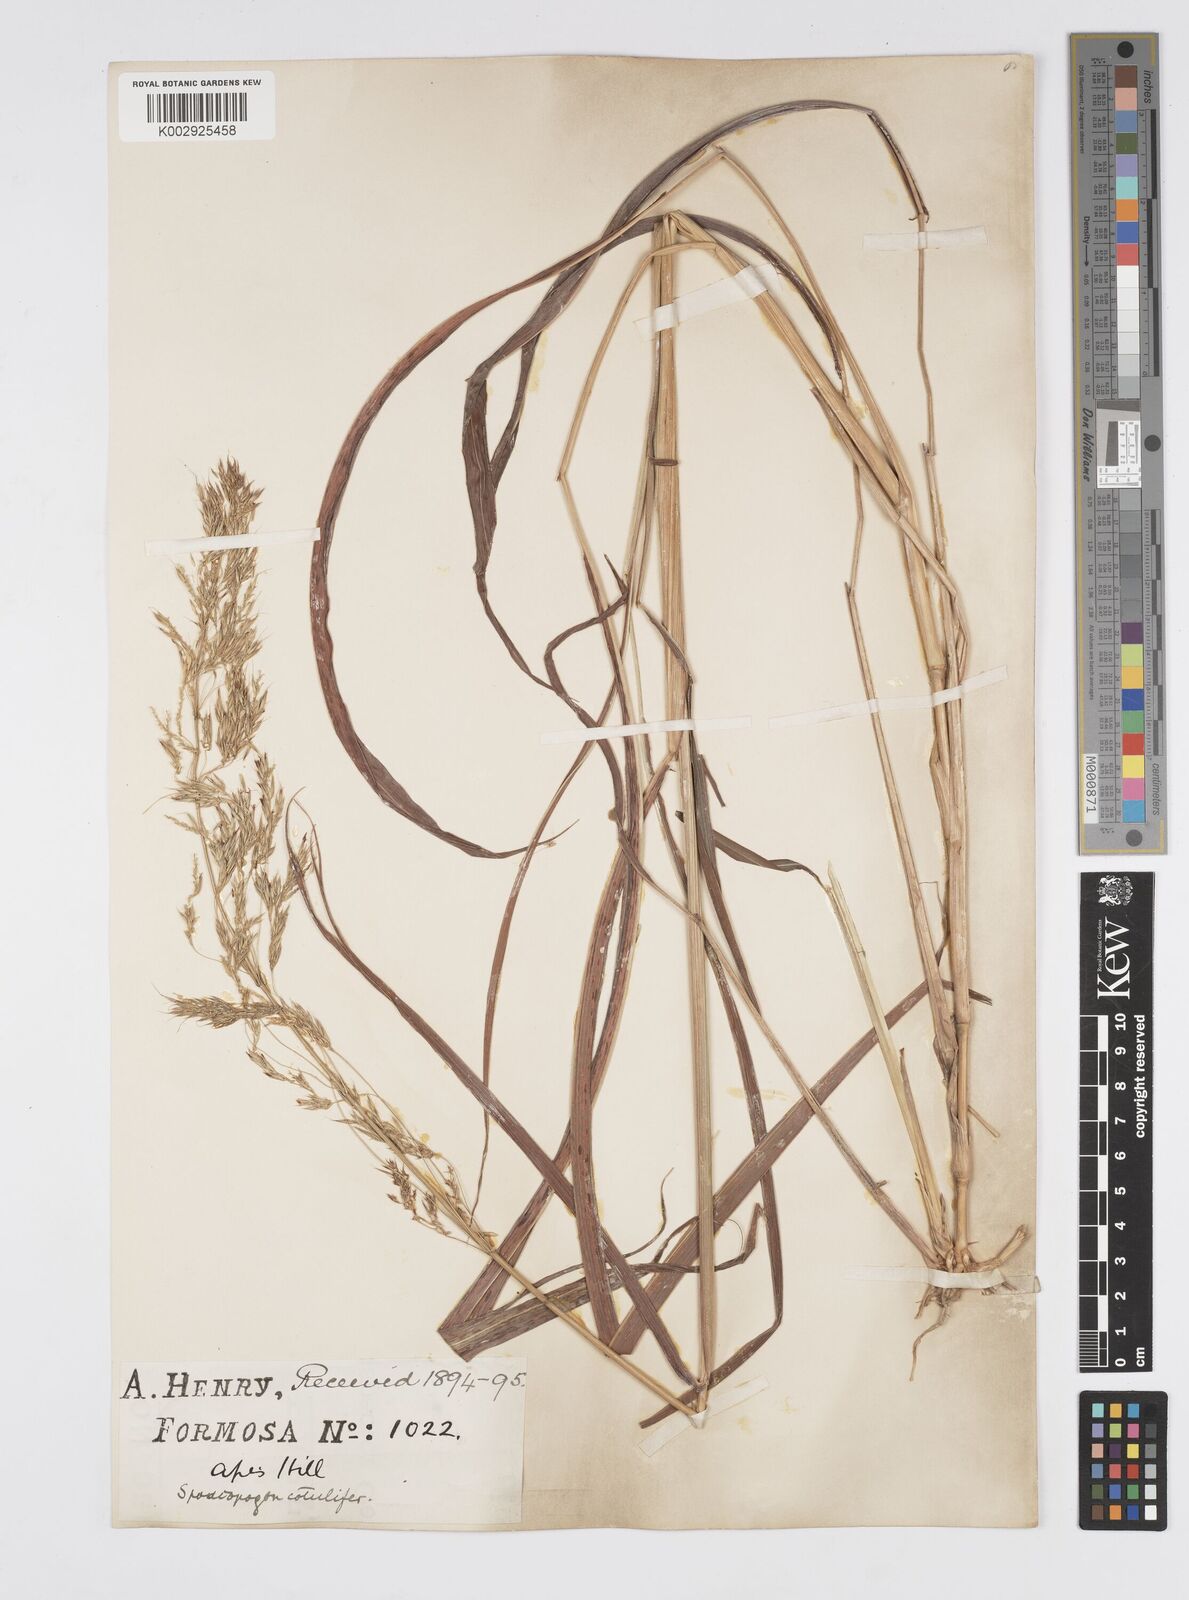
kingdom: Plantae
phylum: Tracheophyta
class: Liliopsida
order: Poales
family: Poaceae
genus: Spodiopogon
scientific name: Spodiopogon cotulifer
